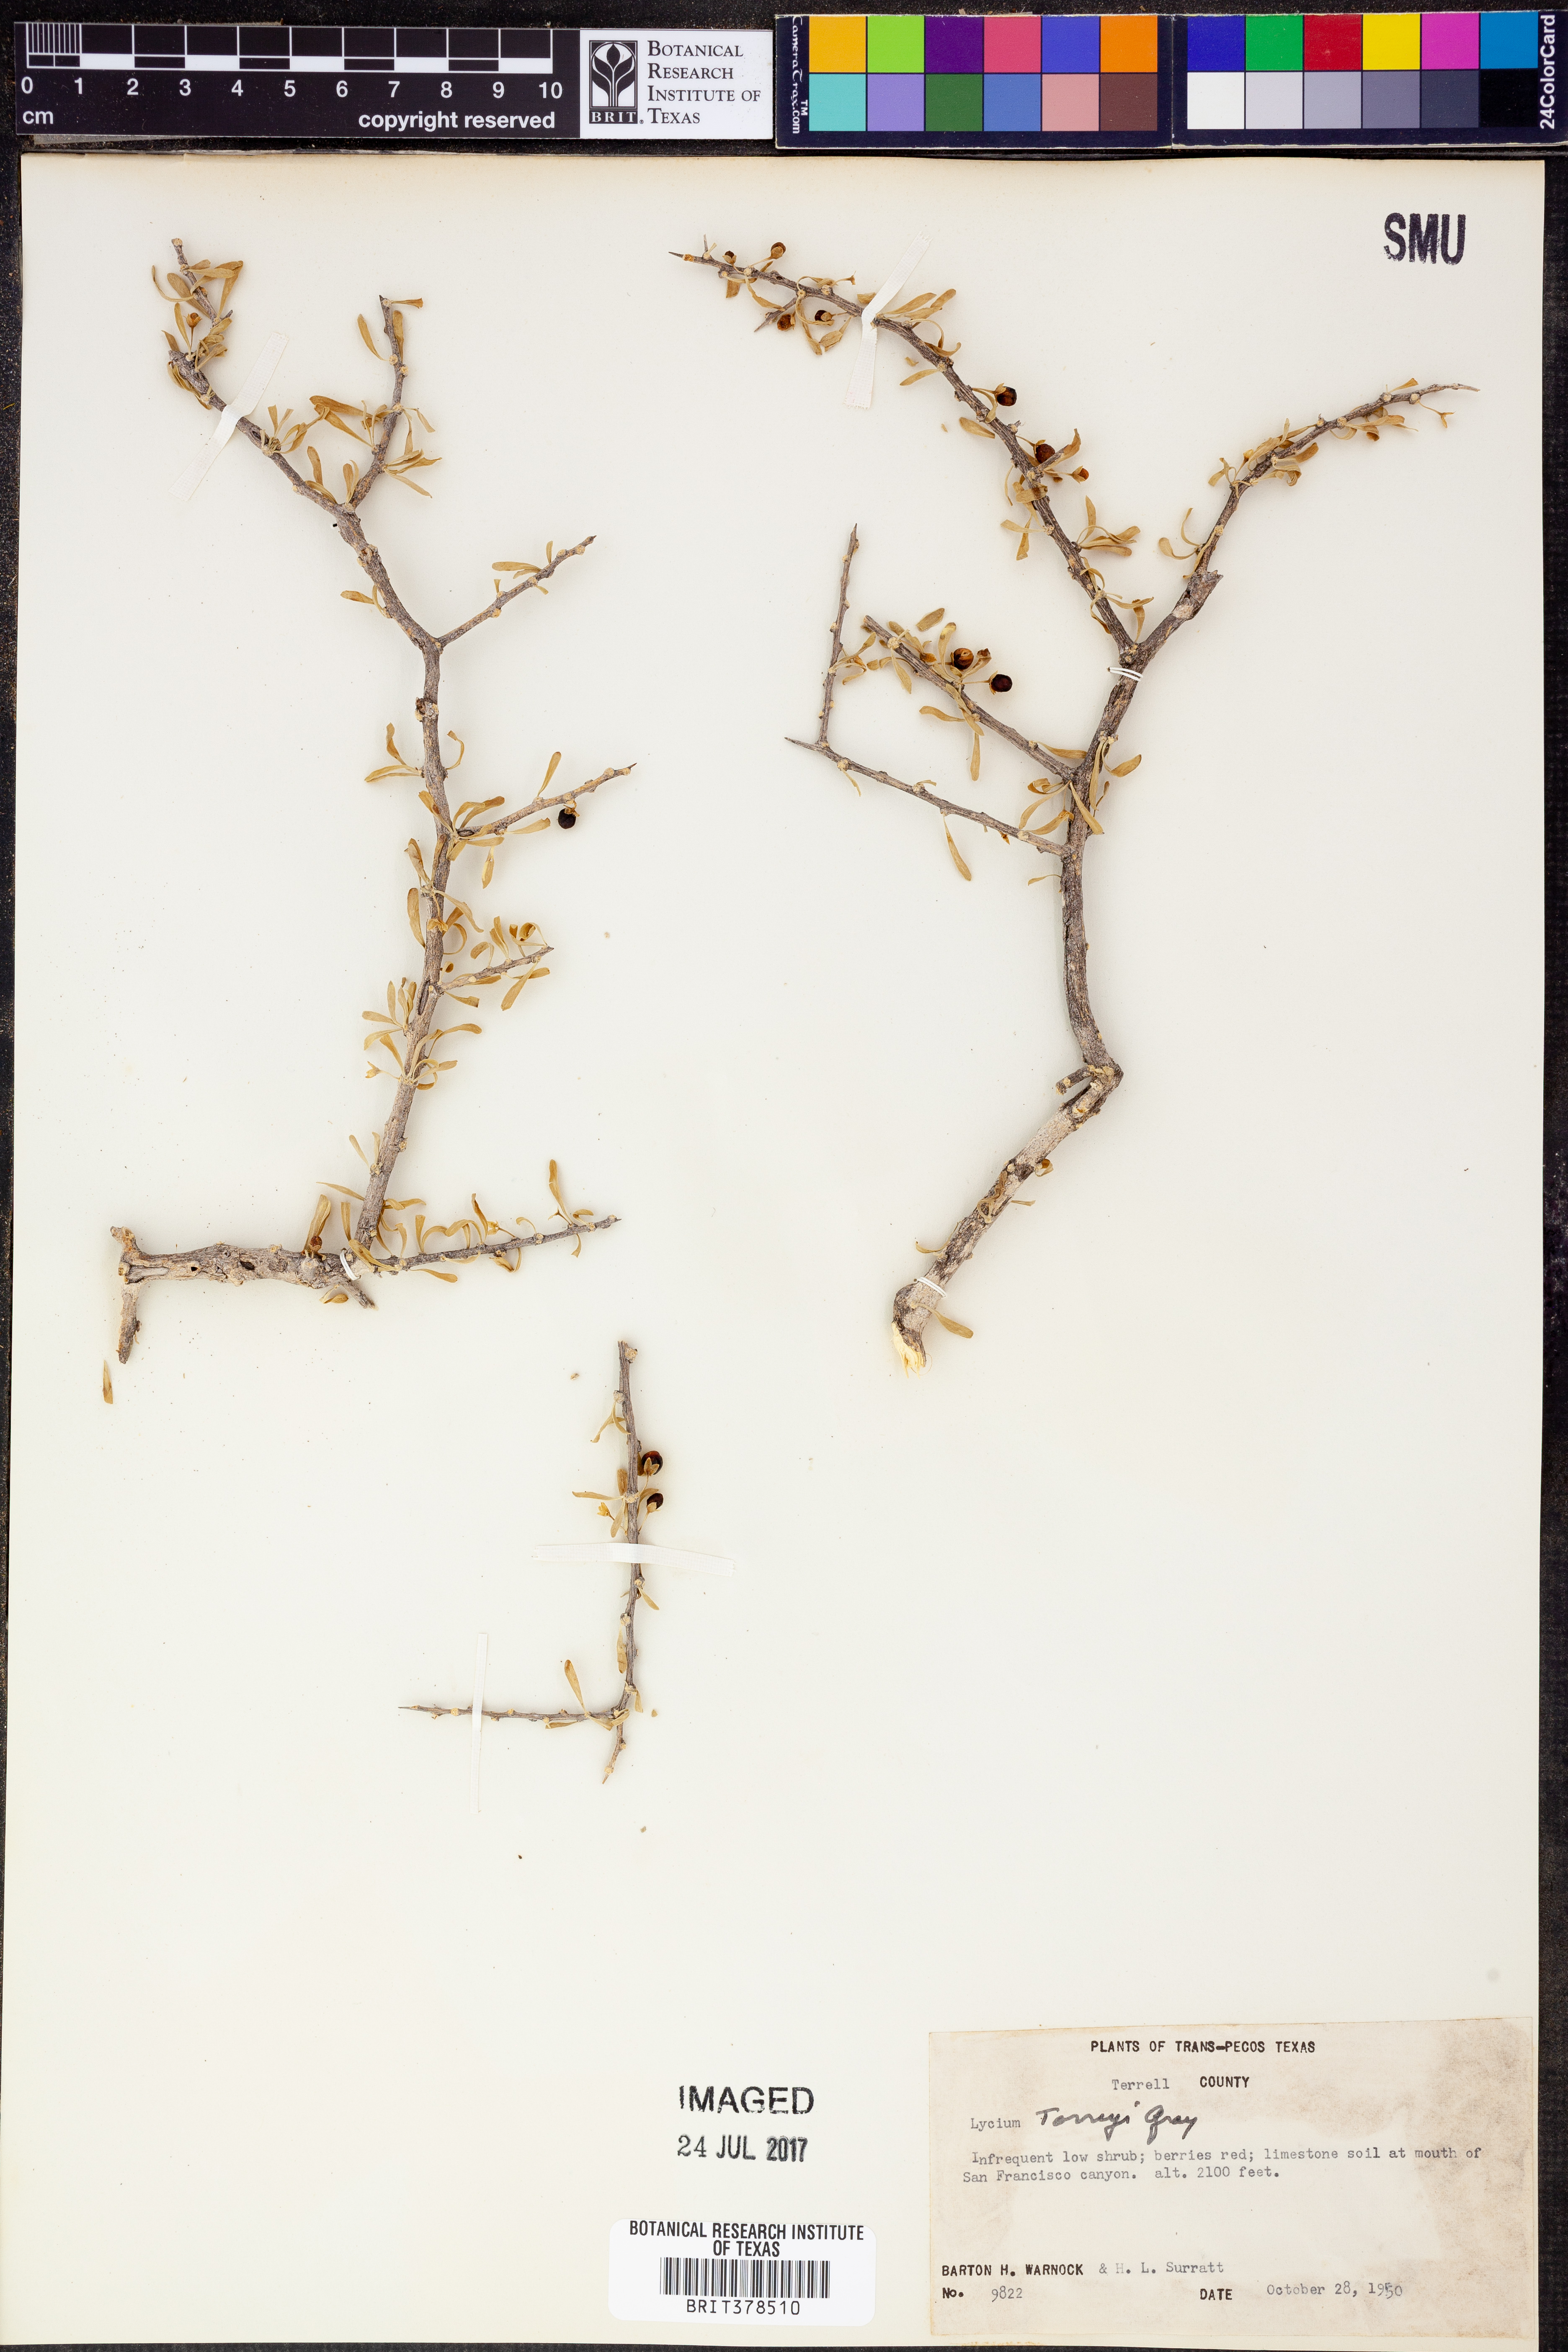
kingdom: Plantae
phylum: Tracheophyta
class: Magnoliopsida
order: Solanales
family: Solanaceae
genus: Lycium
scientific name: Lycium torreyi
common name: Torrey's lycium
